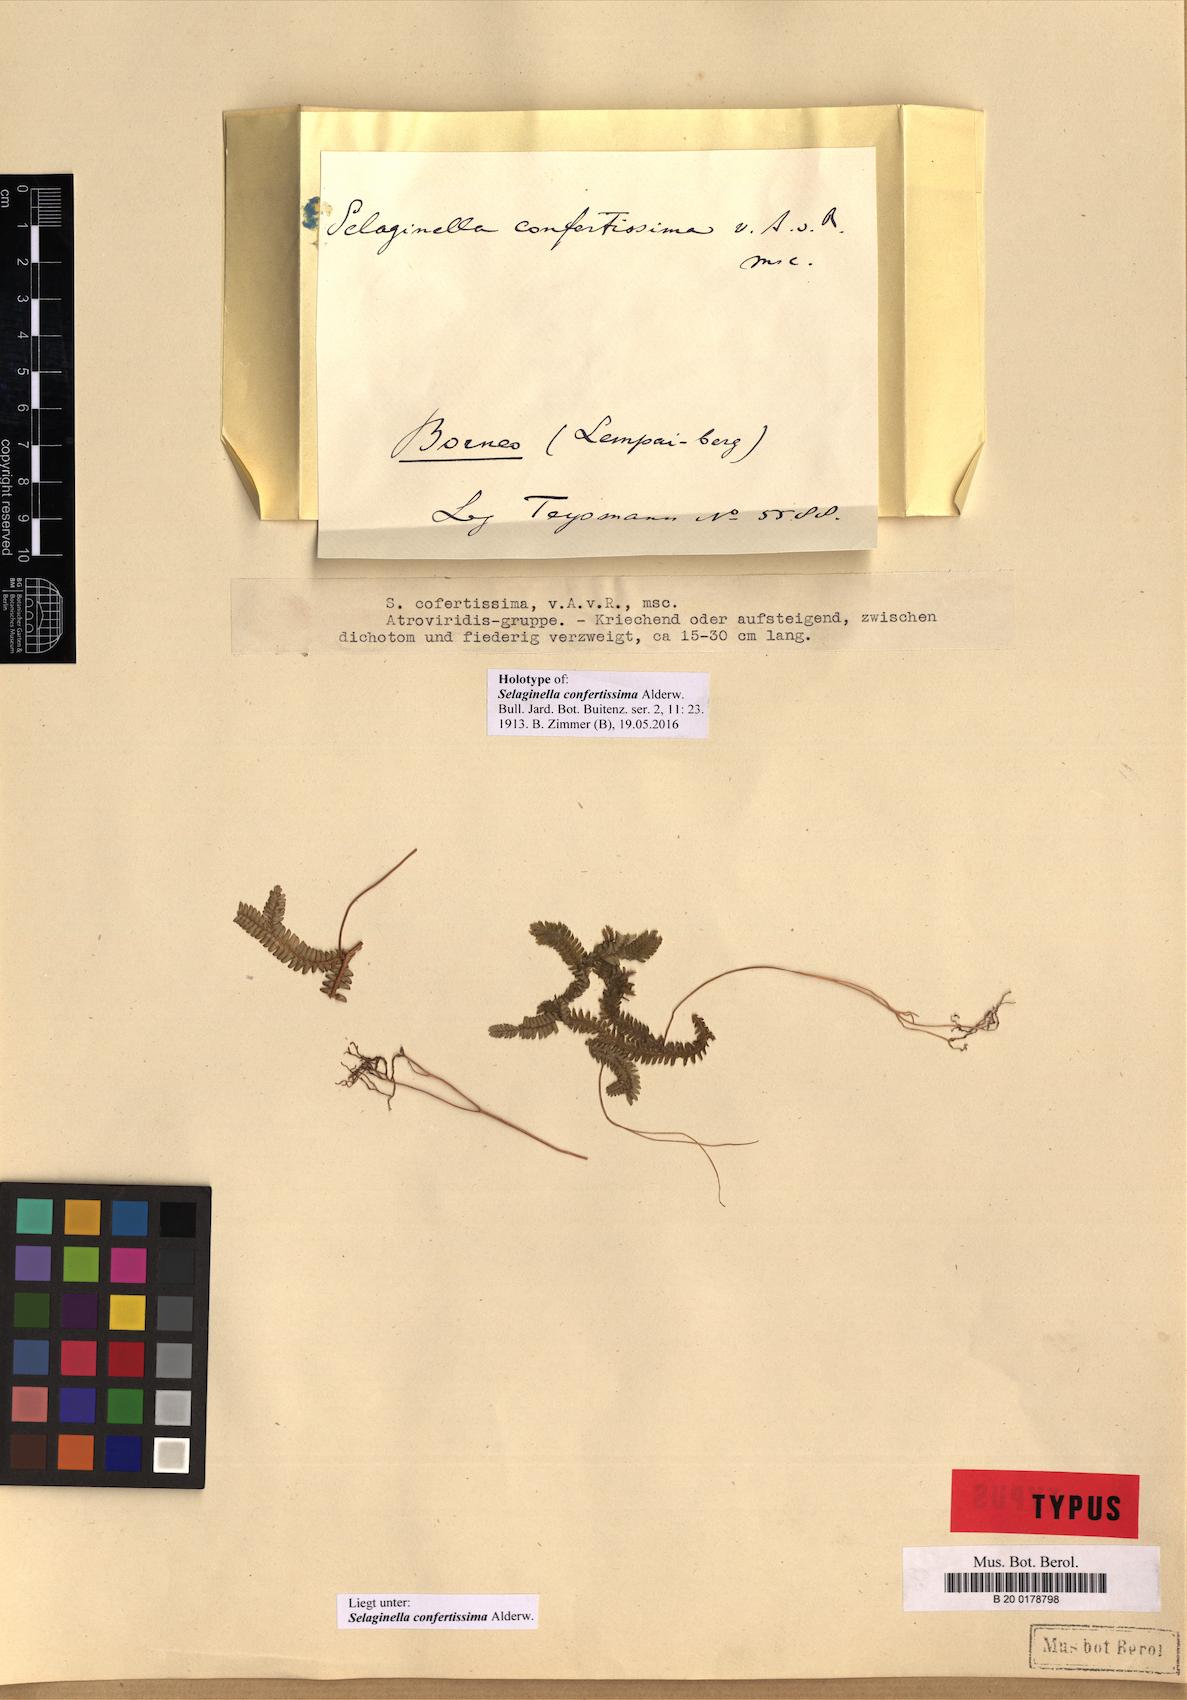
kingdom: Plantae
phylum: Tracheophyta
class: Lycopodiopsida
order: Selaginellales
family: Selaginellaceae
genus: Selaginella
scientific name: Selaginella subserpentina
